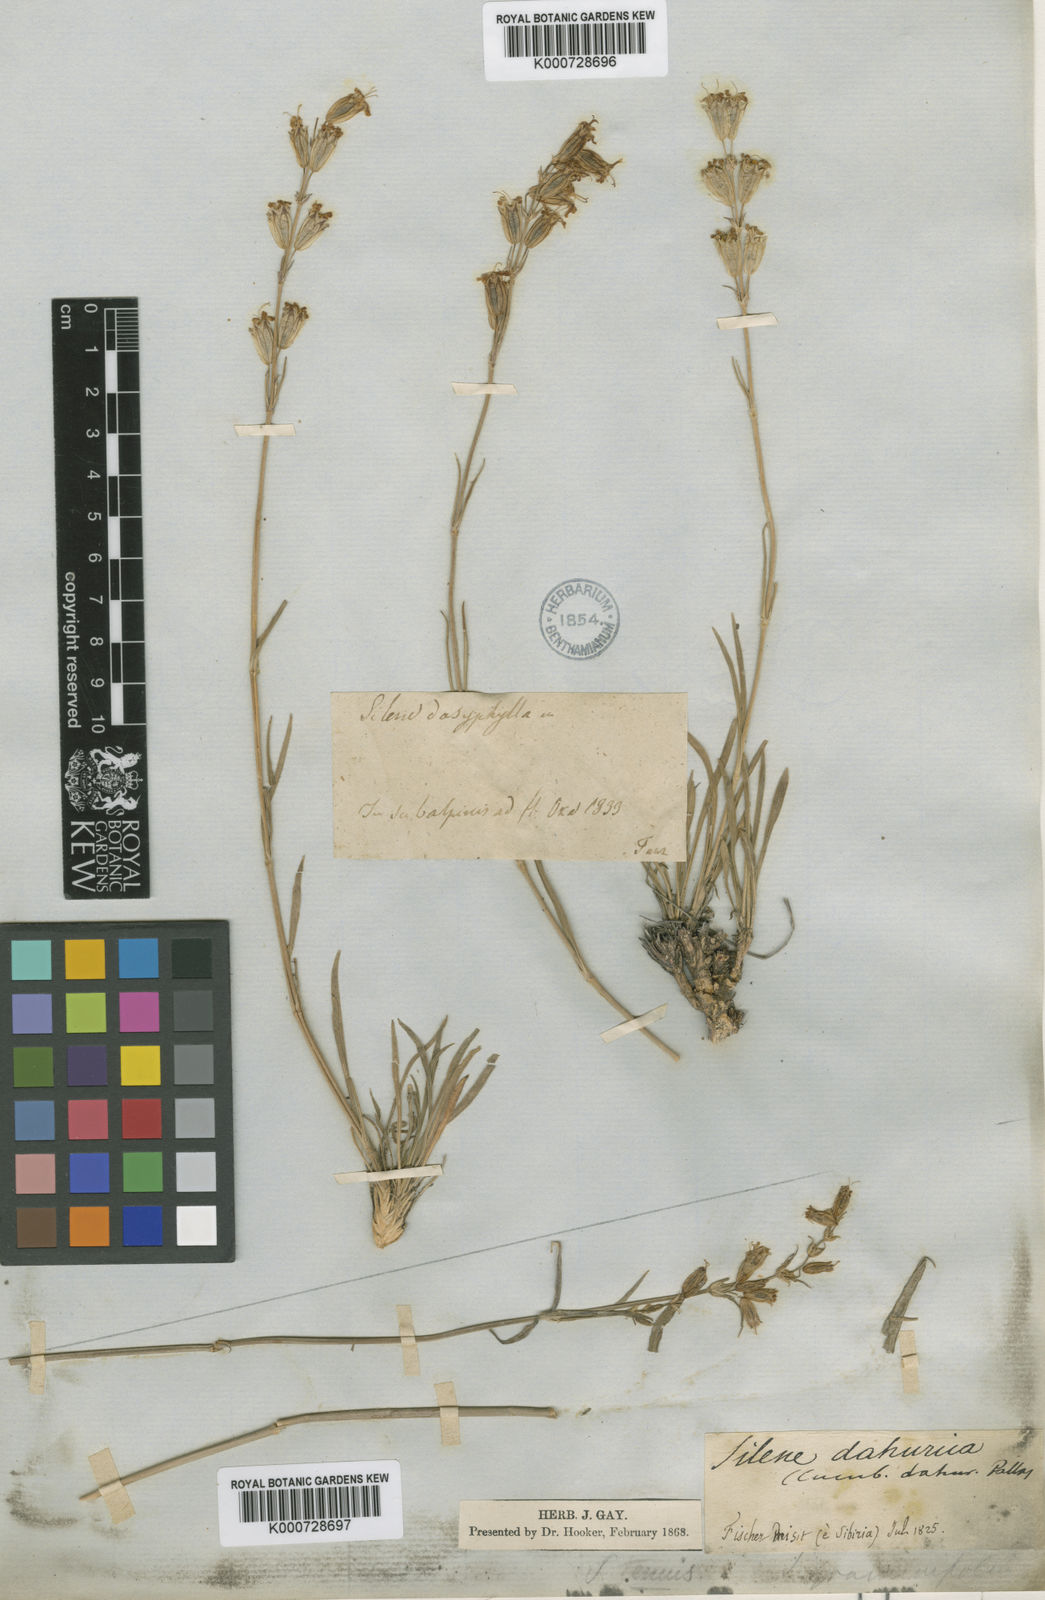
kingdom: Plantae
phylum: Tracheophyta
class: Magnoliopsida
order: Caryophyllales
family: Caryophyllaceae
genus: Silene
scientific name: Silene jeniseensis
